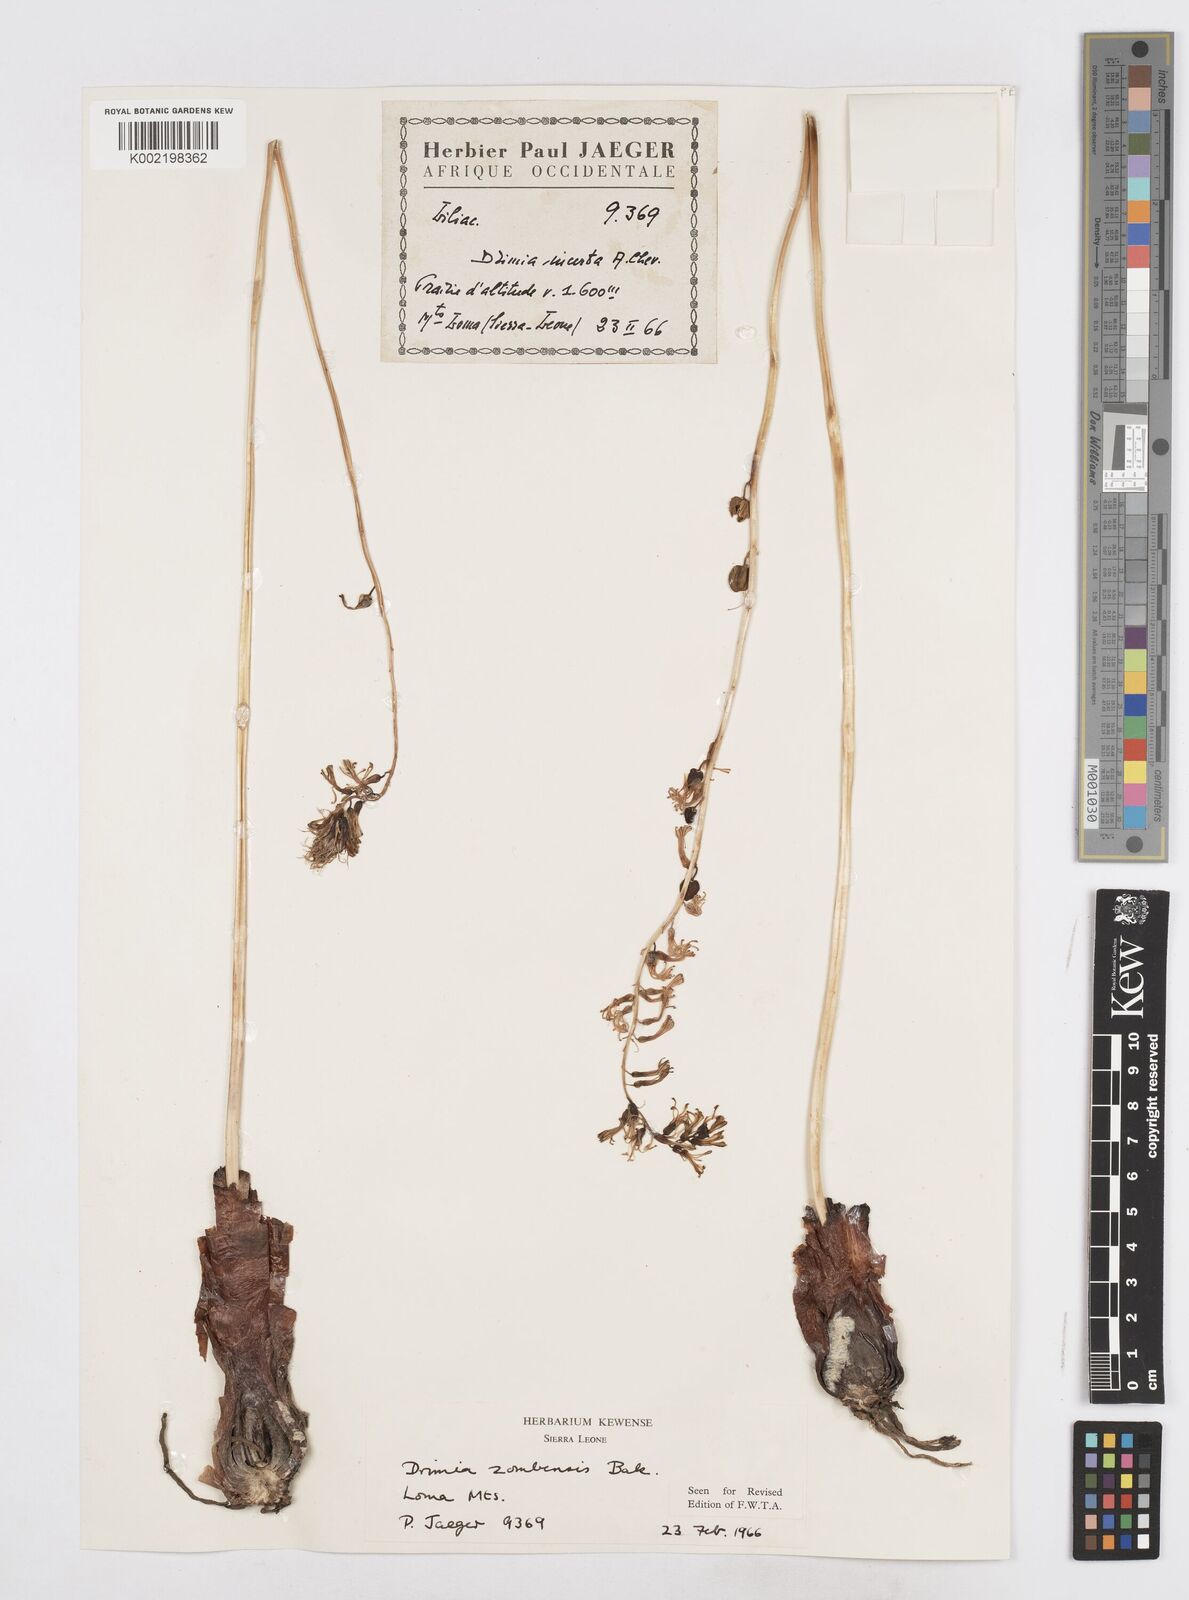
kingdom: Plantae
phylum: Tracheophyta
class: Liliopsida
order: Asparagales
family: Asparagaceae
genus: Drimia
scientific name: Drimia elata
